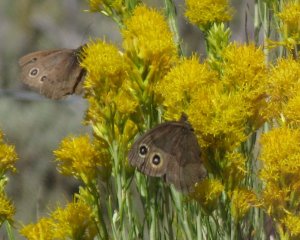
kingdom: Animalia
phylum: Arthropoda
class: Insecta
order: Lepidoptera
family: Nymphalidae
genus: Cercyonis
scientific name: Cercyonis pegala
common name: Common Wood-Nymph
